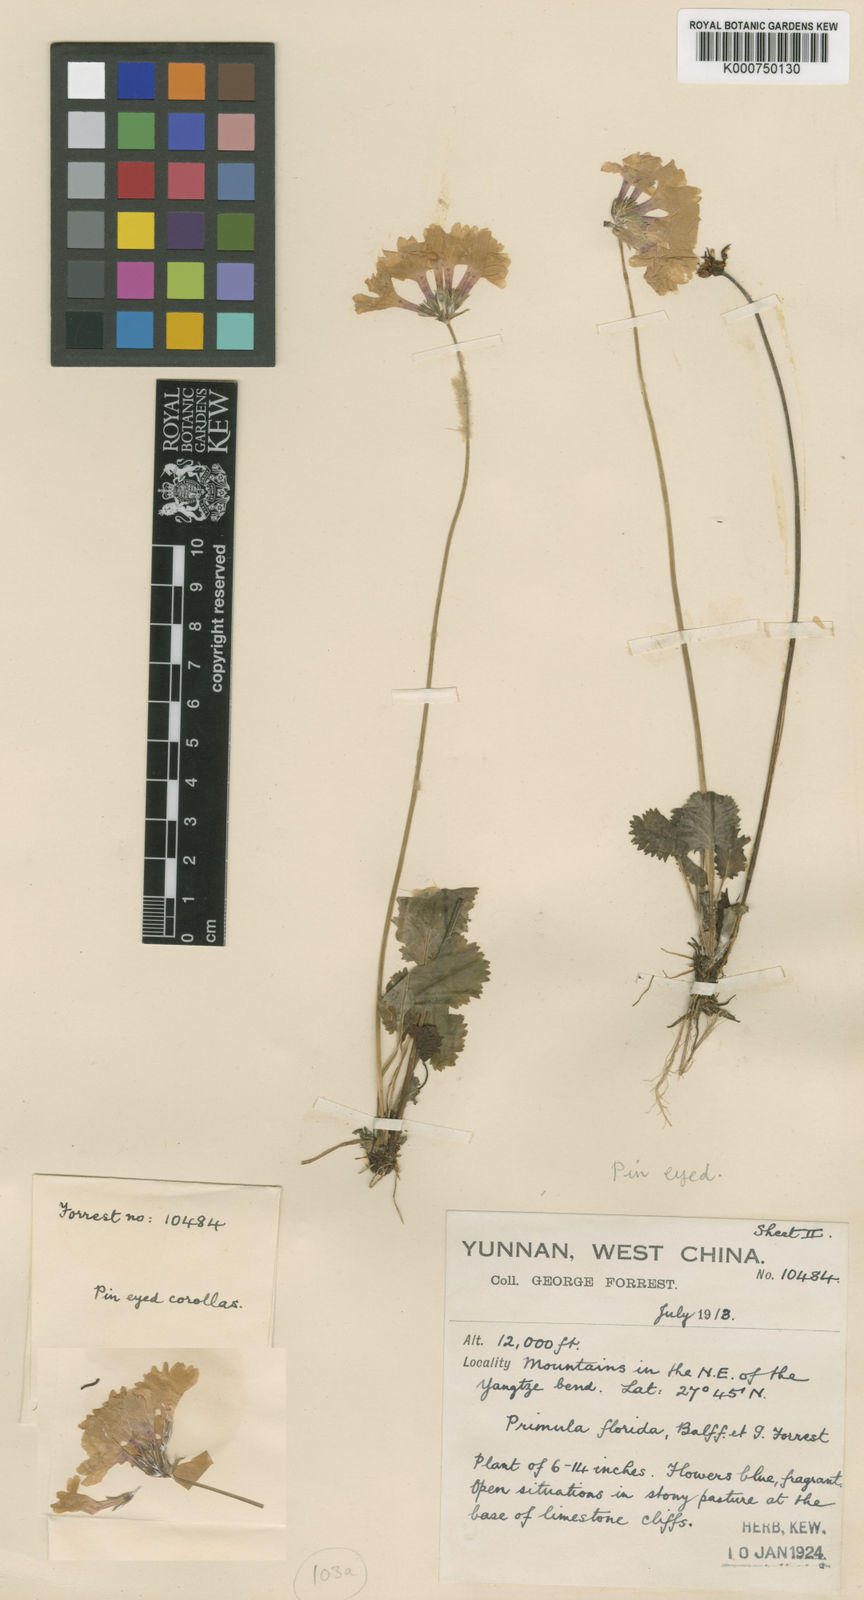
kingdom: Plantae
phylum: Tracheophyta
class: Magnoliopsida
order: Ericales
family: Primulaceae
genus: Primula
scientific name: Primula blinii
